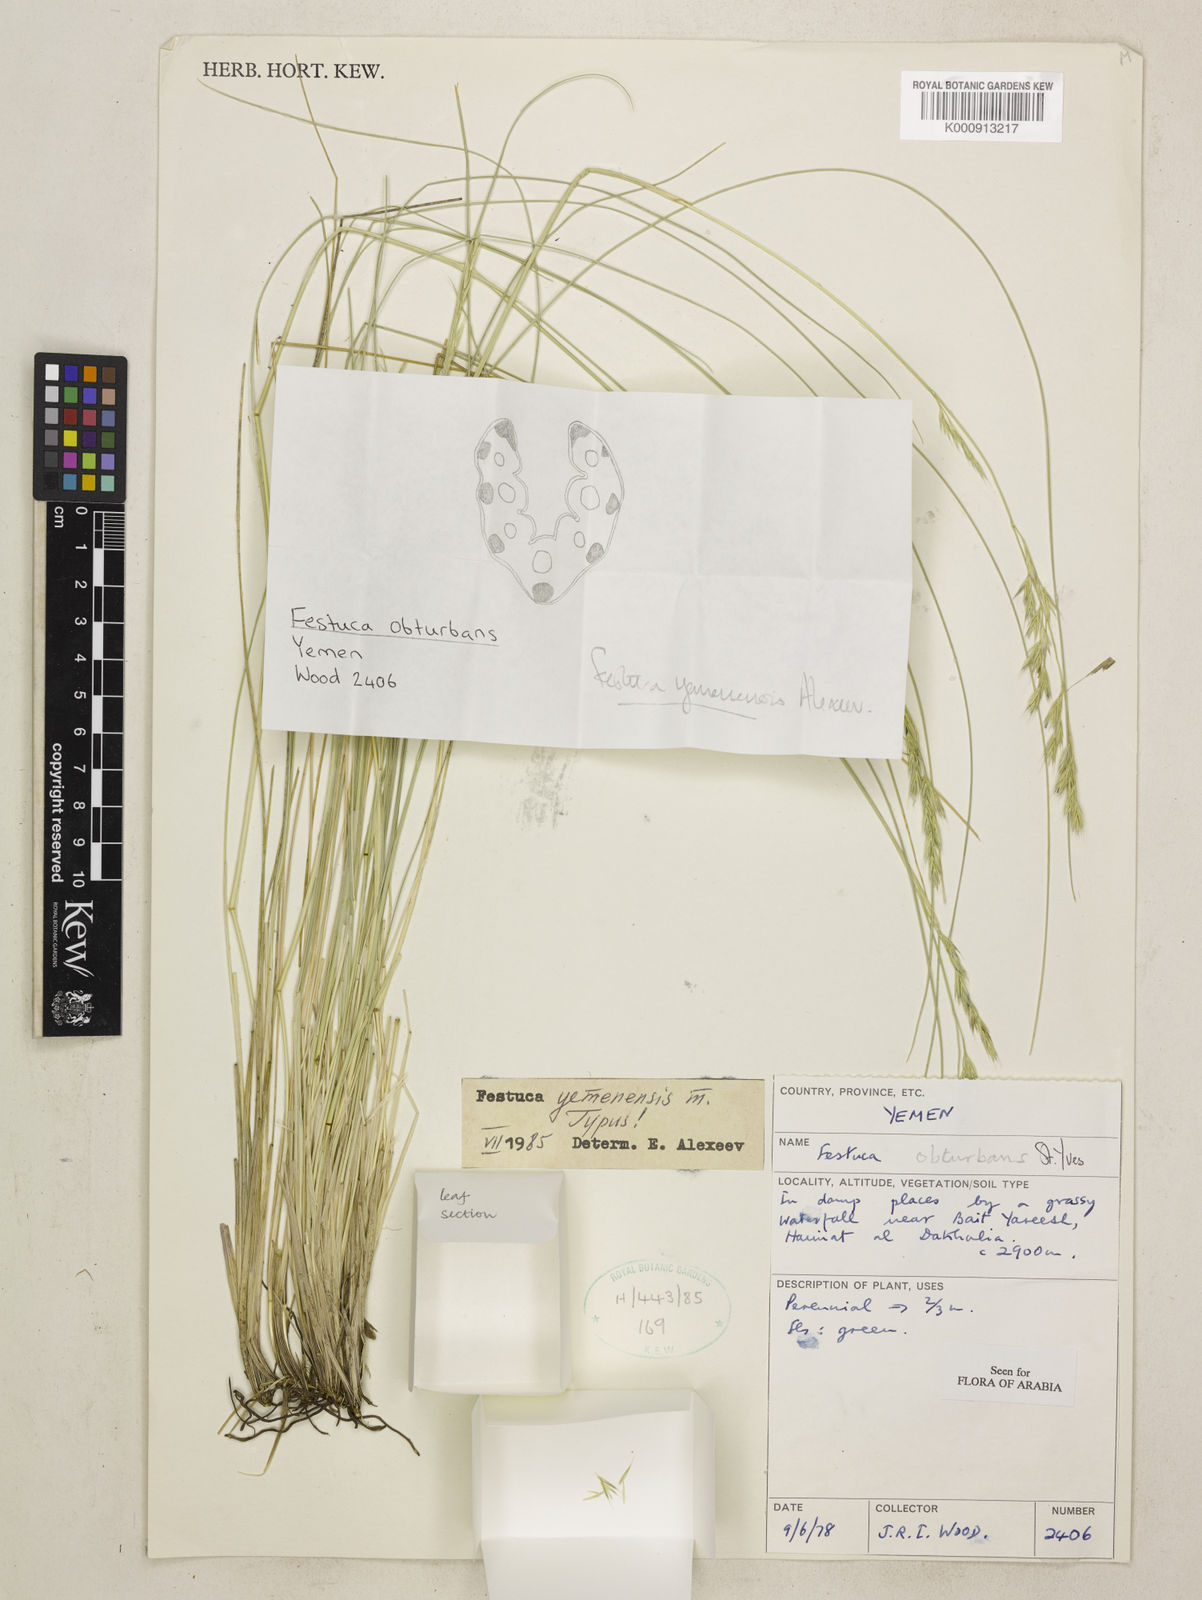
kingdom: Plantae
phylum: Tracheophyta
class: Liliopsida
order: Poales
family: Poaceae
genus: Festuca
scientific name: Festuca yemenensis
